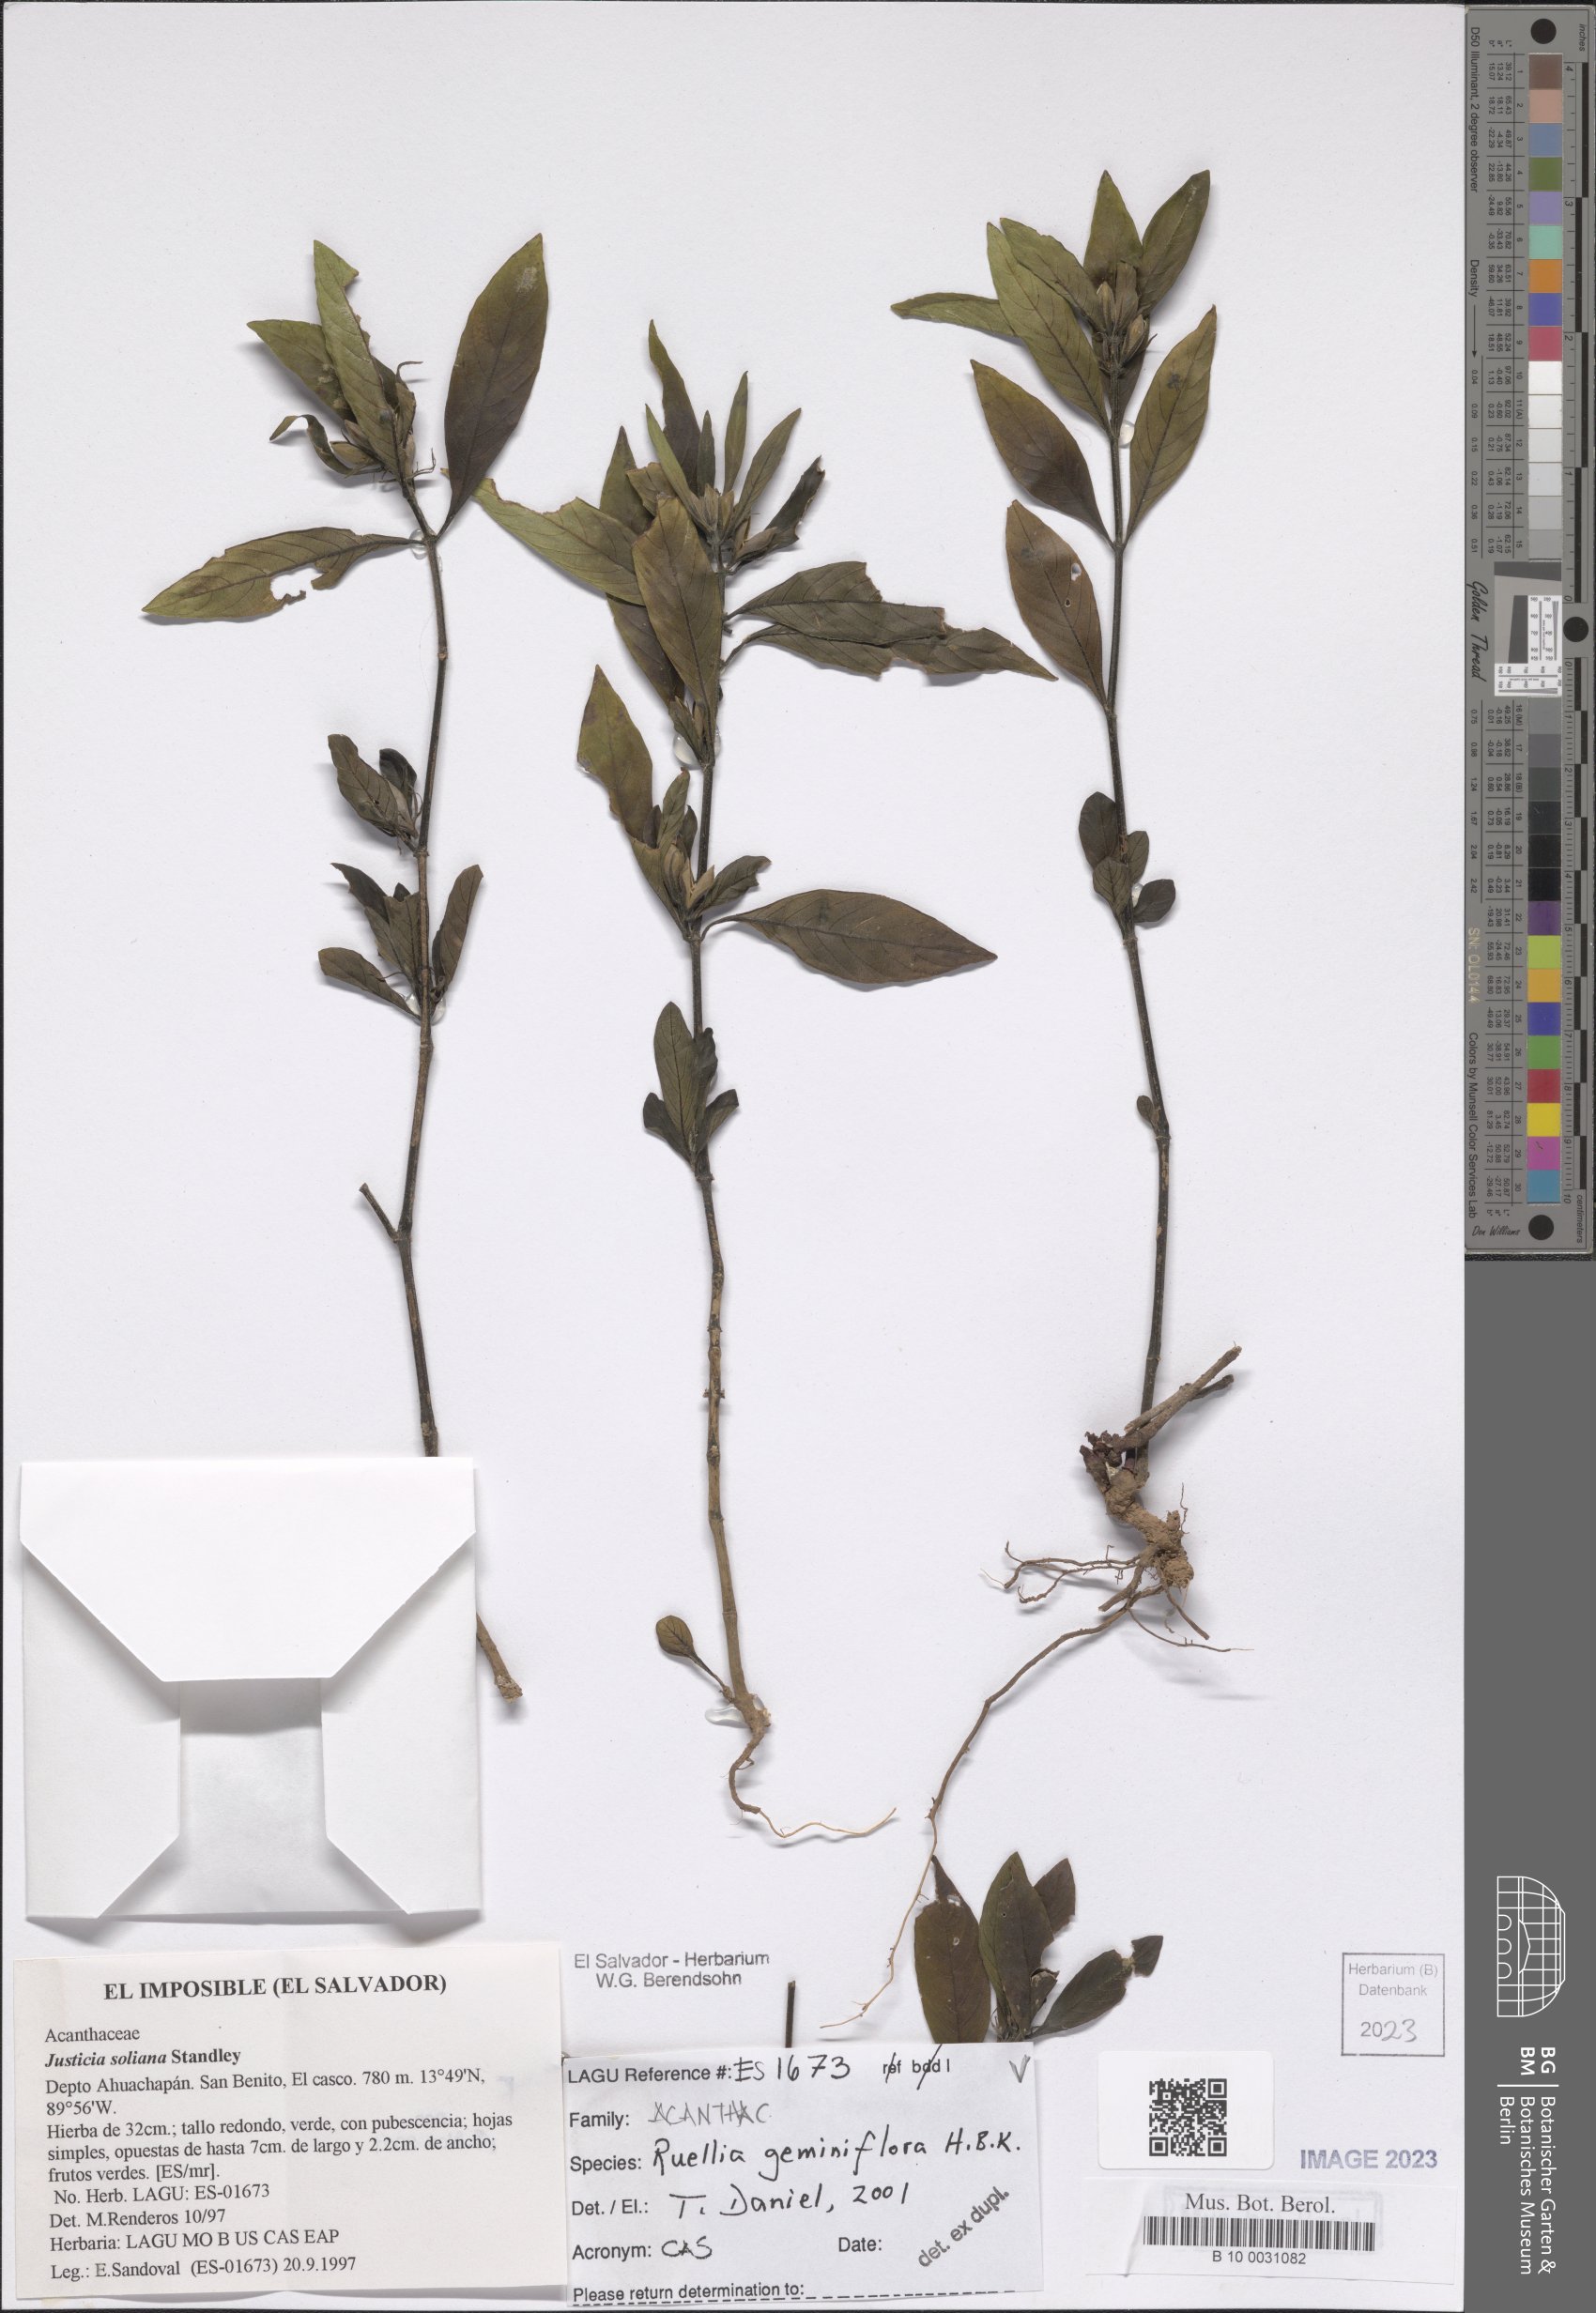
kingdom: Plantae
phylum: Tracheophyta
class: Magnoliopsida
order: Lamiales
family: Acanthaceae
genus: Ruellia
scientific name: Ruellia geminiflora
